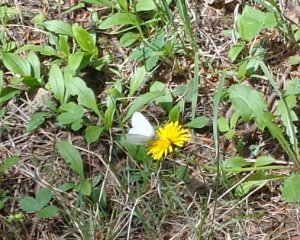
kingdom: Animalia
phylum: Arthropoda
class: Insecta
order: Lepidoptera
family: Pieridae
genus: Pieris
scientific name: Pieris virginiensis
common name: West Virginia White
